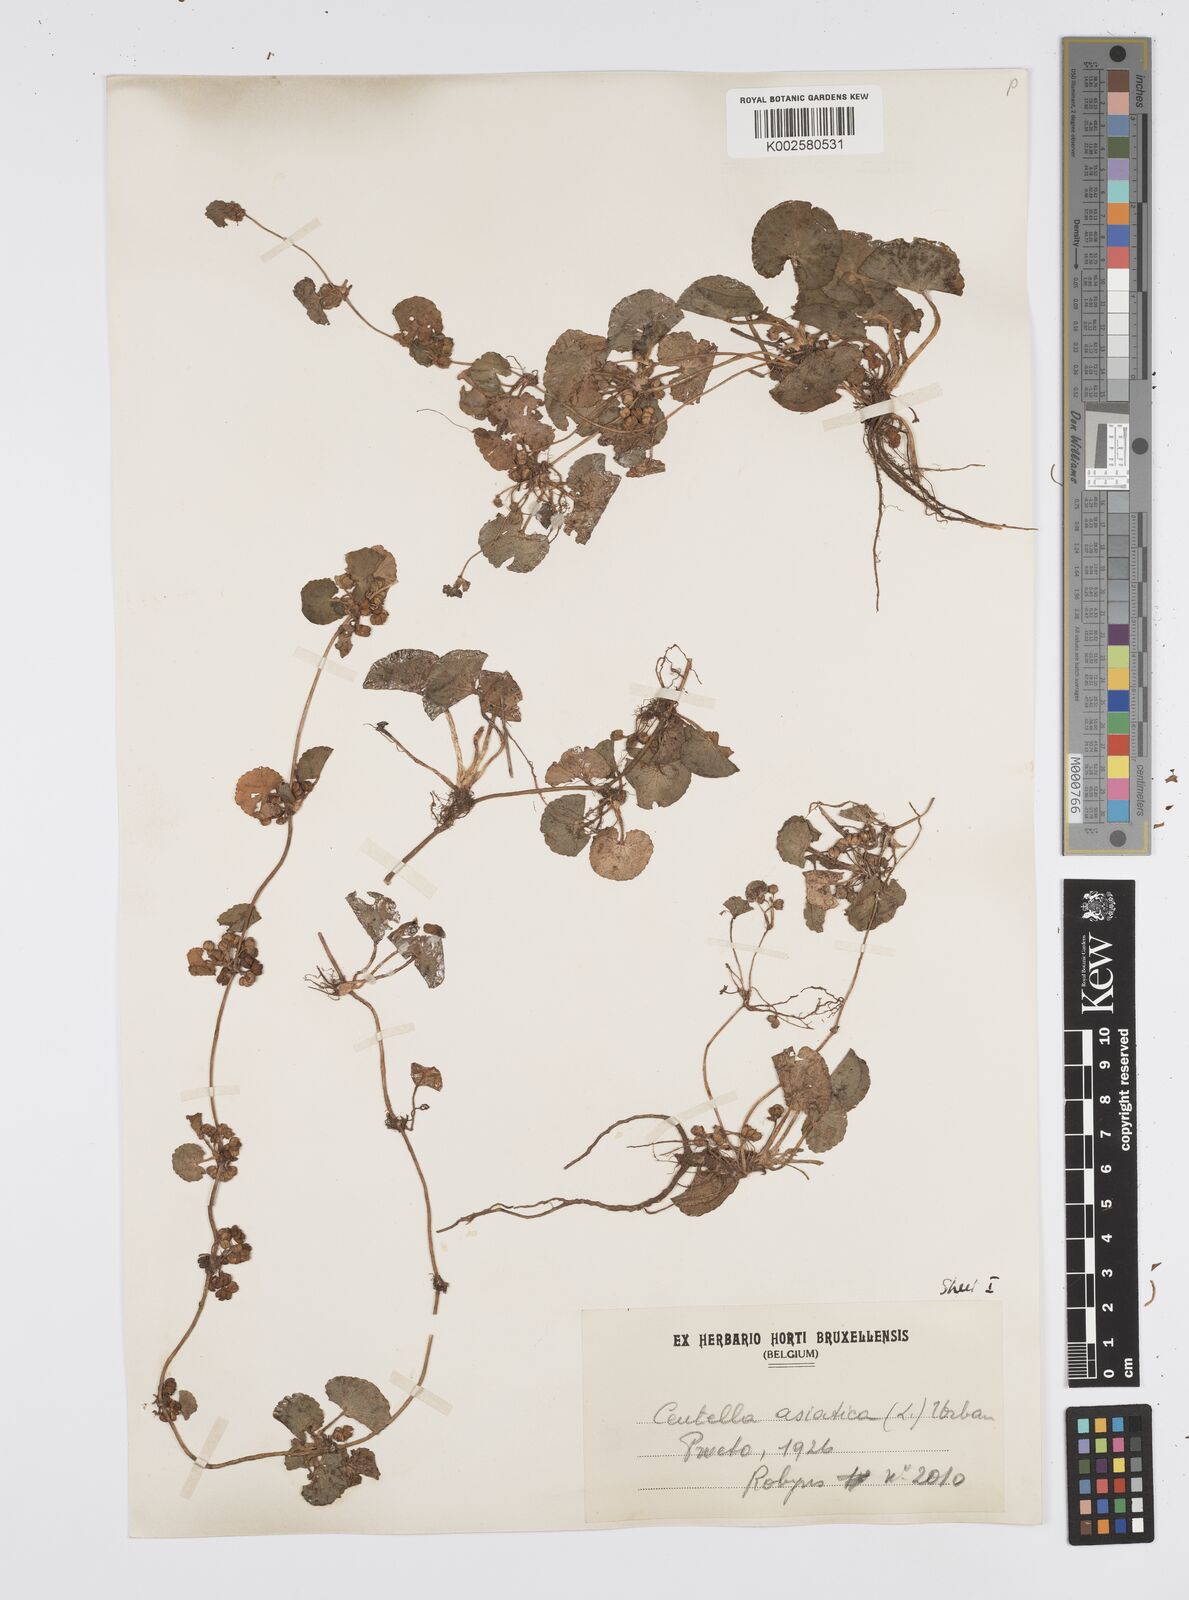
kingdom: Plantae
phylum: Tracheophyta
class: Magnoliopsida
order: Apiales
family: Apiaceae
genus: Centella
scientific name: Centella asiatica
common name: Spadeleaf
